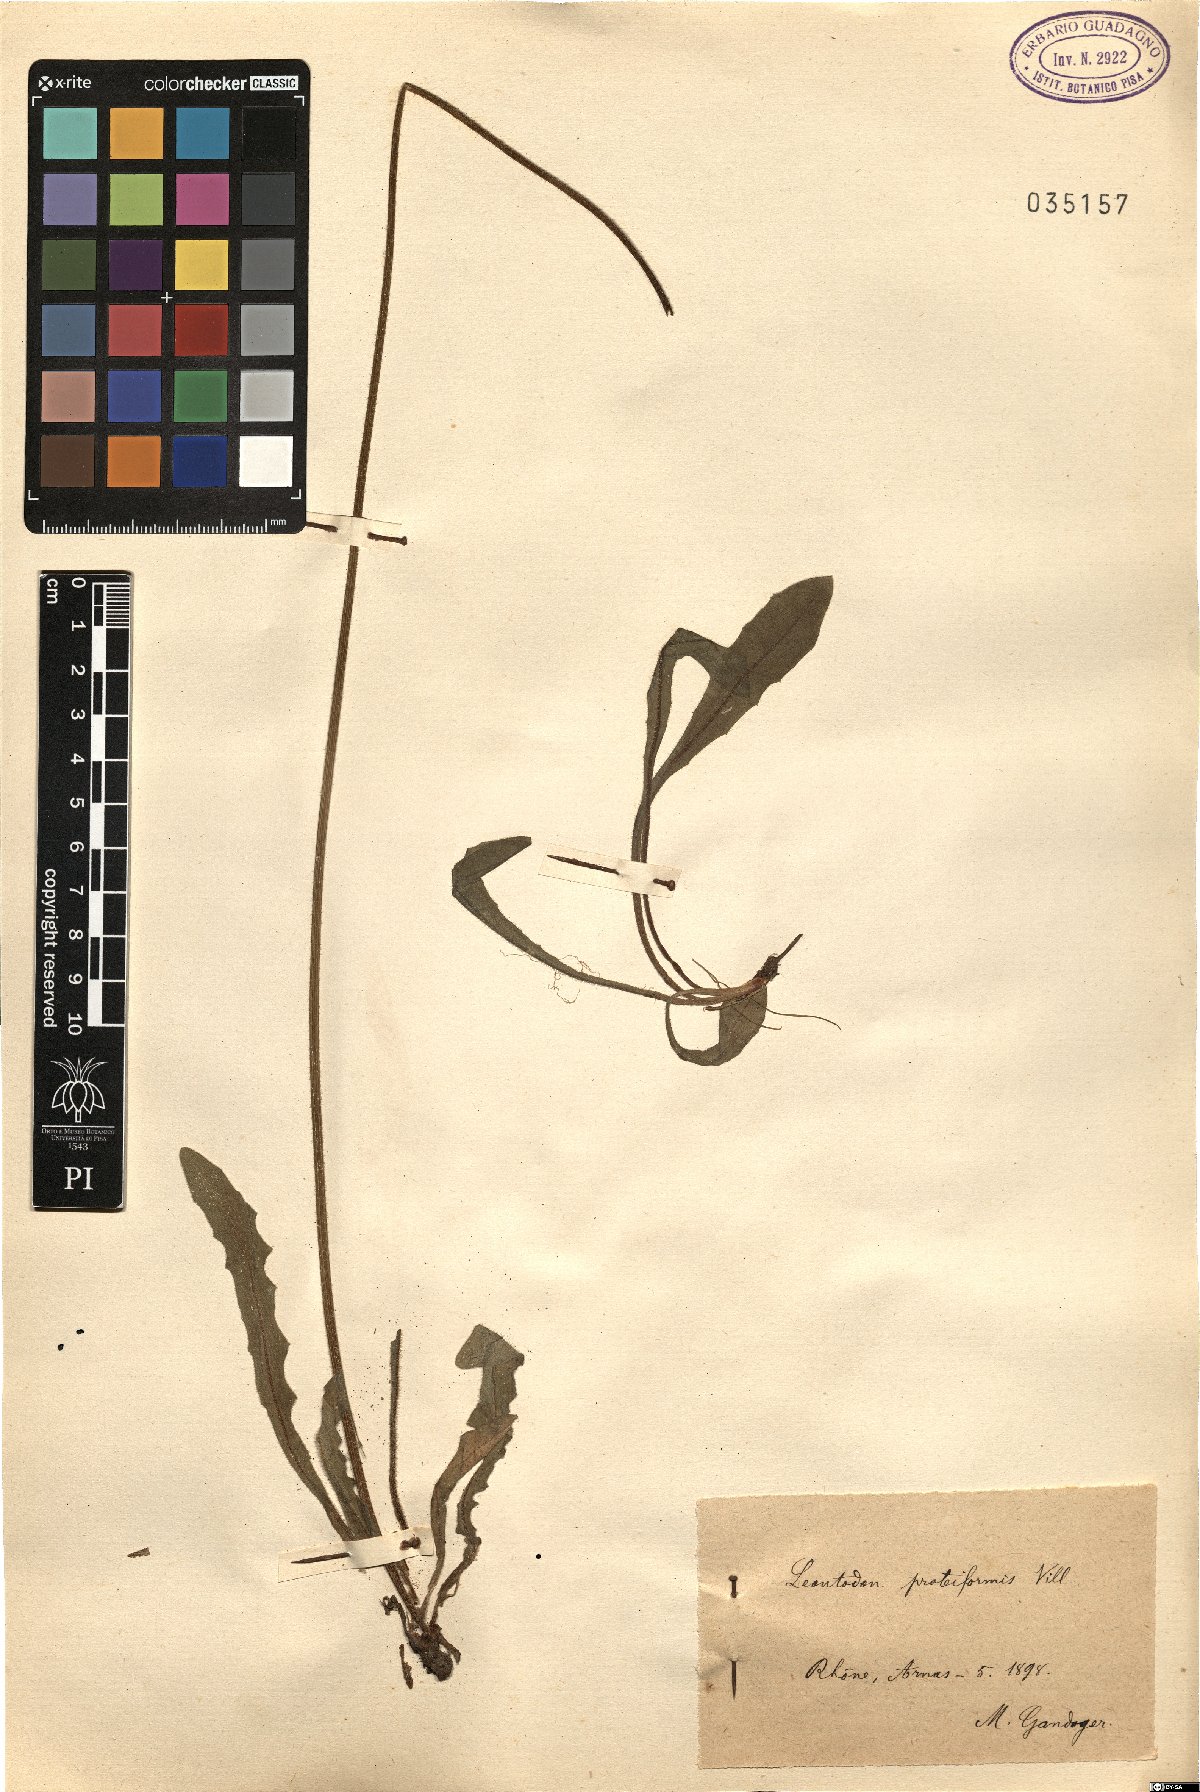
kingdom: Plantae
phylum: Tracheophyta
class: Magnoliopsida
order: Asterales
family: Asteraceae
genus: Leontodon
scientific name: Leontodon hyoseroides
